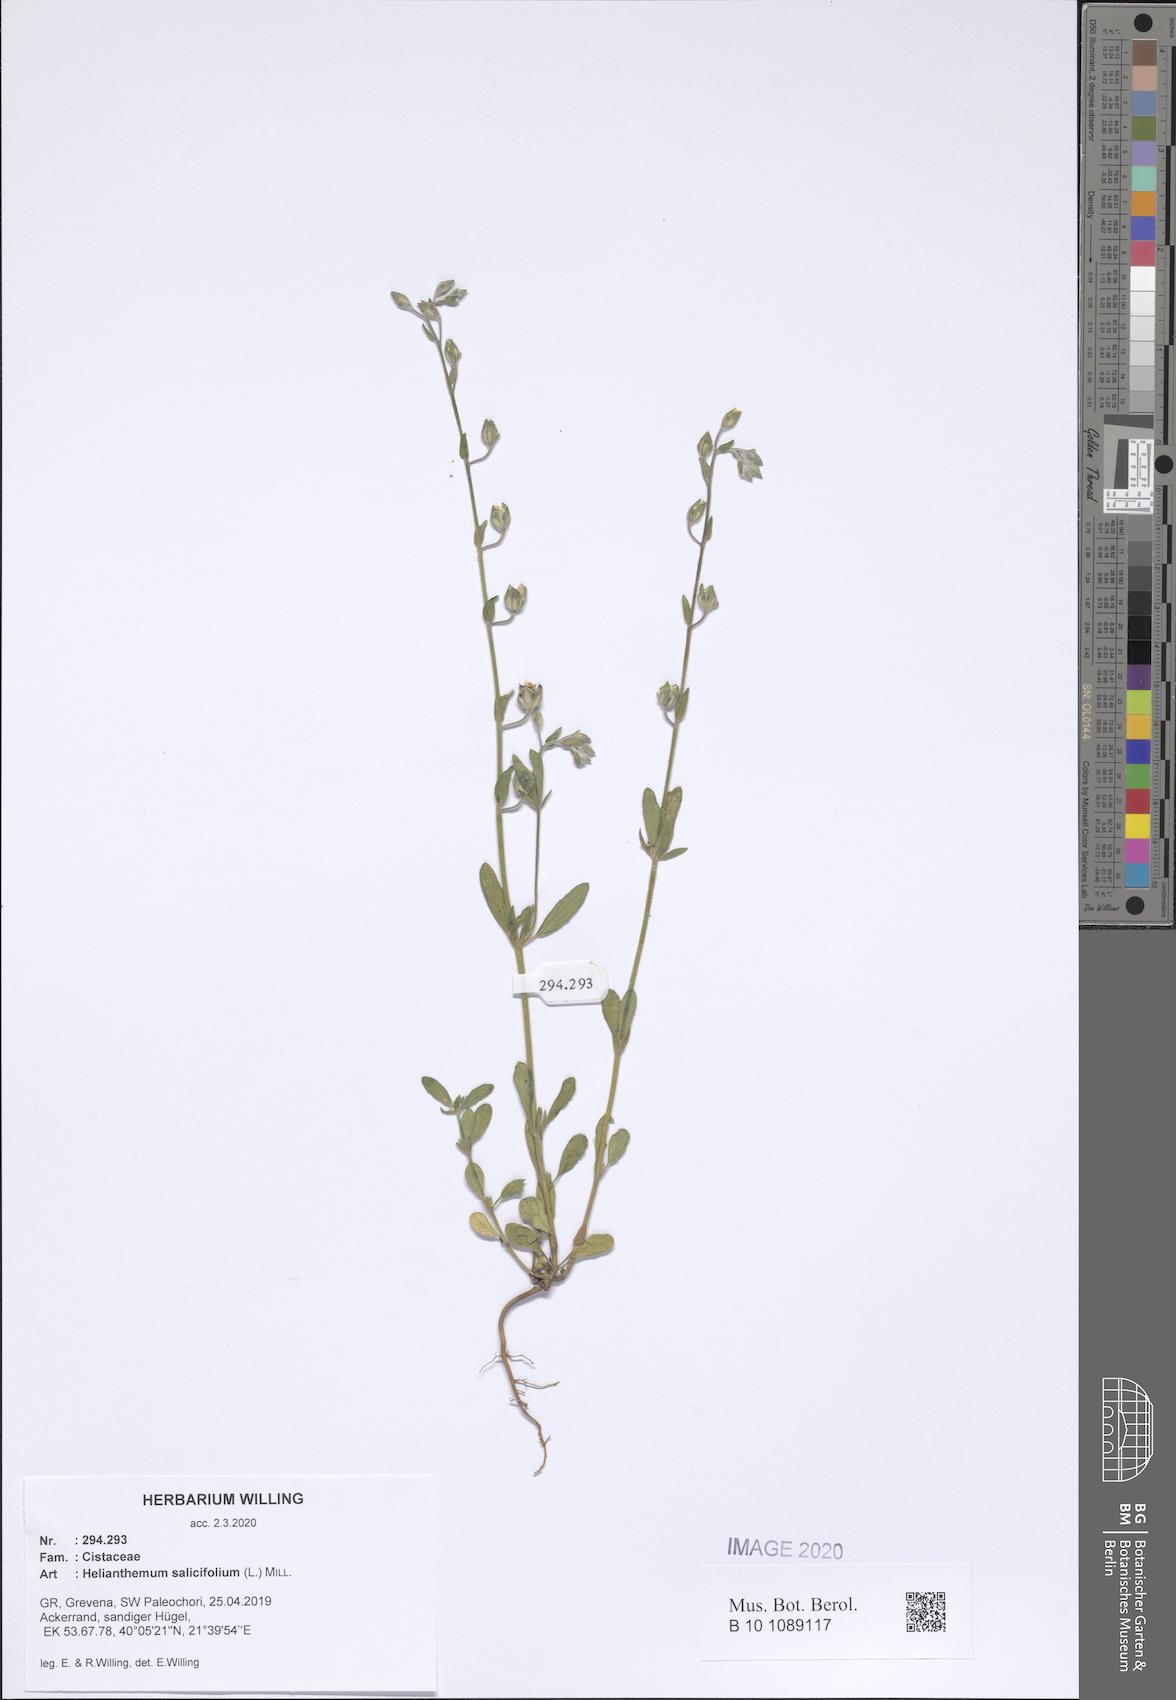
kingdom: Plantae
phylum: Tracheophyta
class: Magnoliopsida
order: Malvales
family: Cistaceae
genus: Helianthemum
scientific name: Helianthemum salicifolium
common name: Willowleaf frostweed
